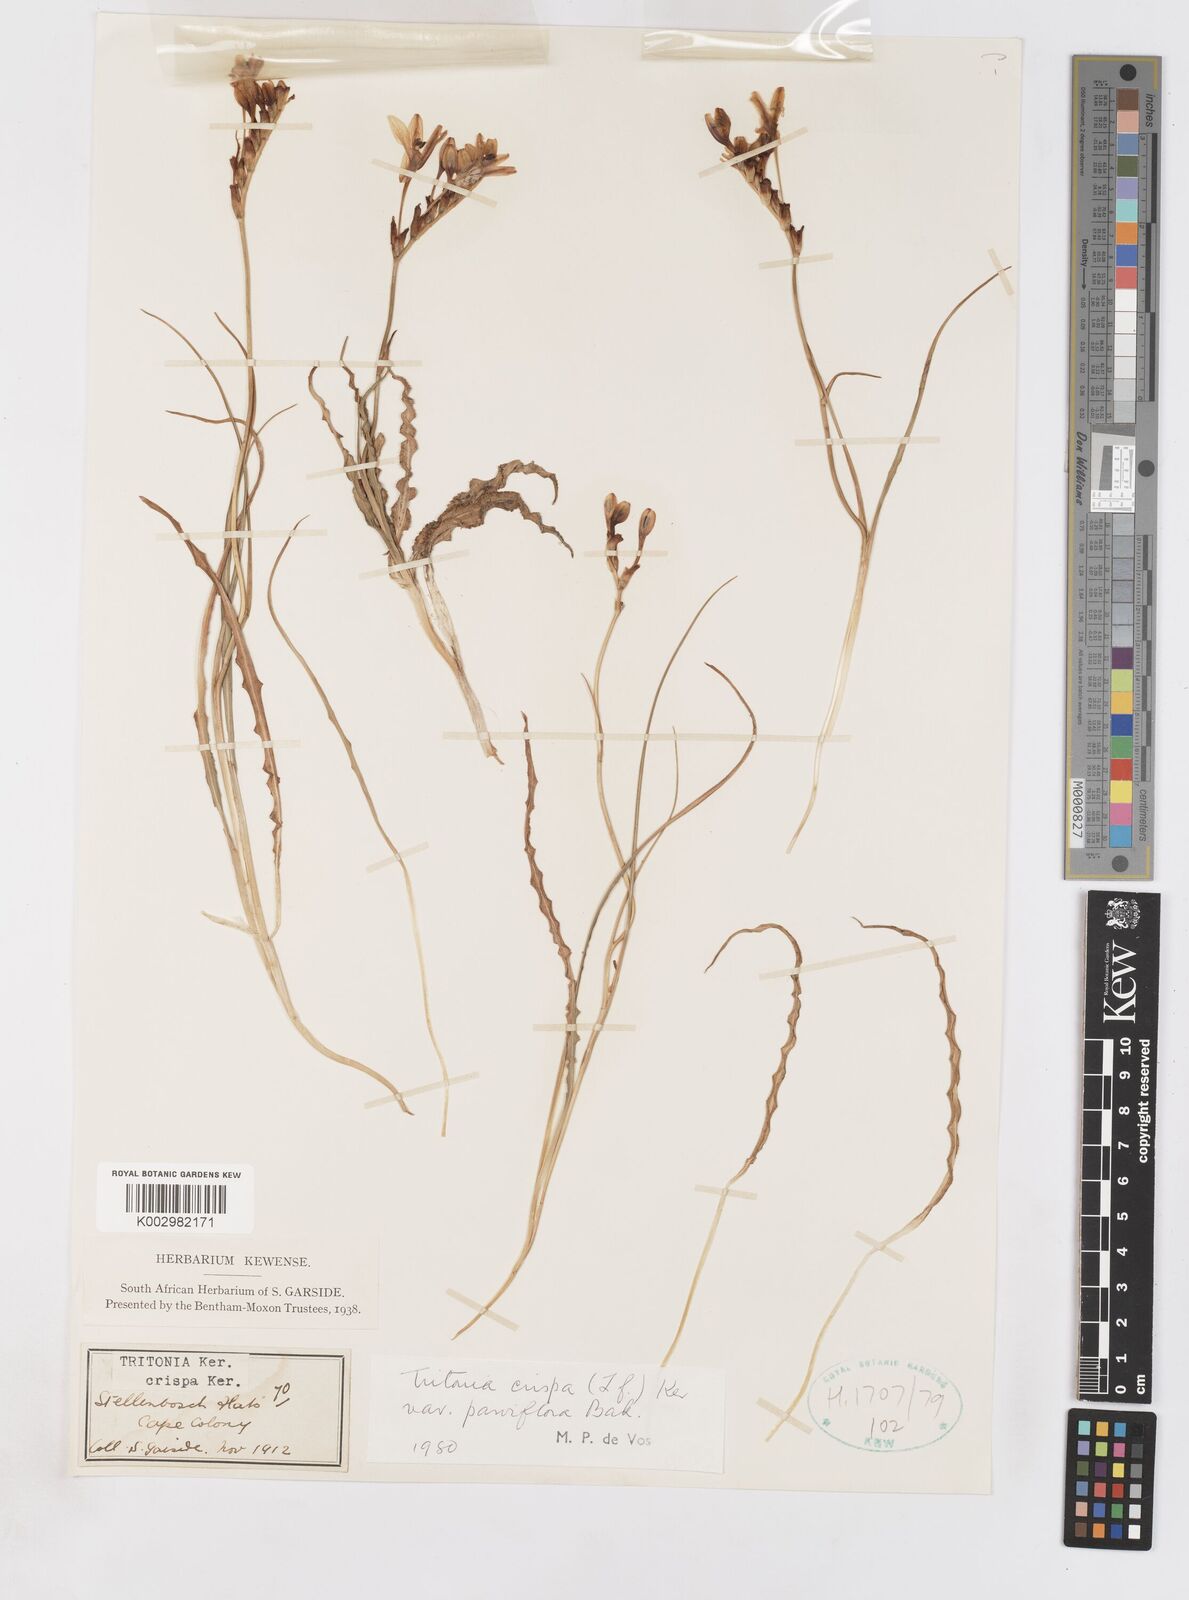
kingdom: Plantae
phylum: Tracheophyta
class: Liliopsida
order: Asparagales
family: Iridaceae
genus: Tritonia
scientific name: Tritonia undulata
